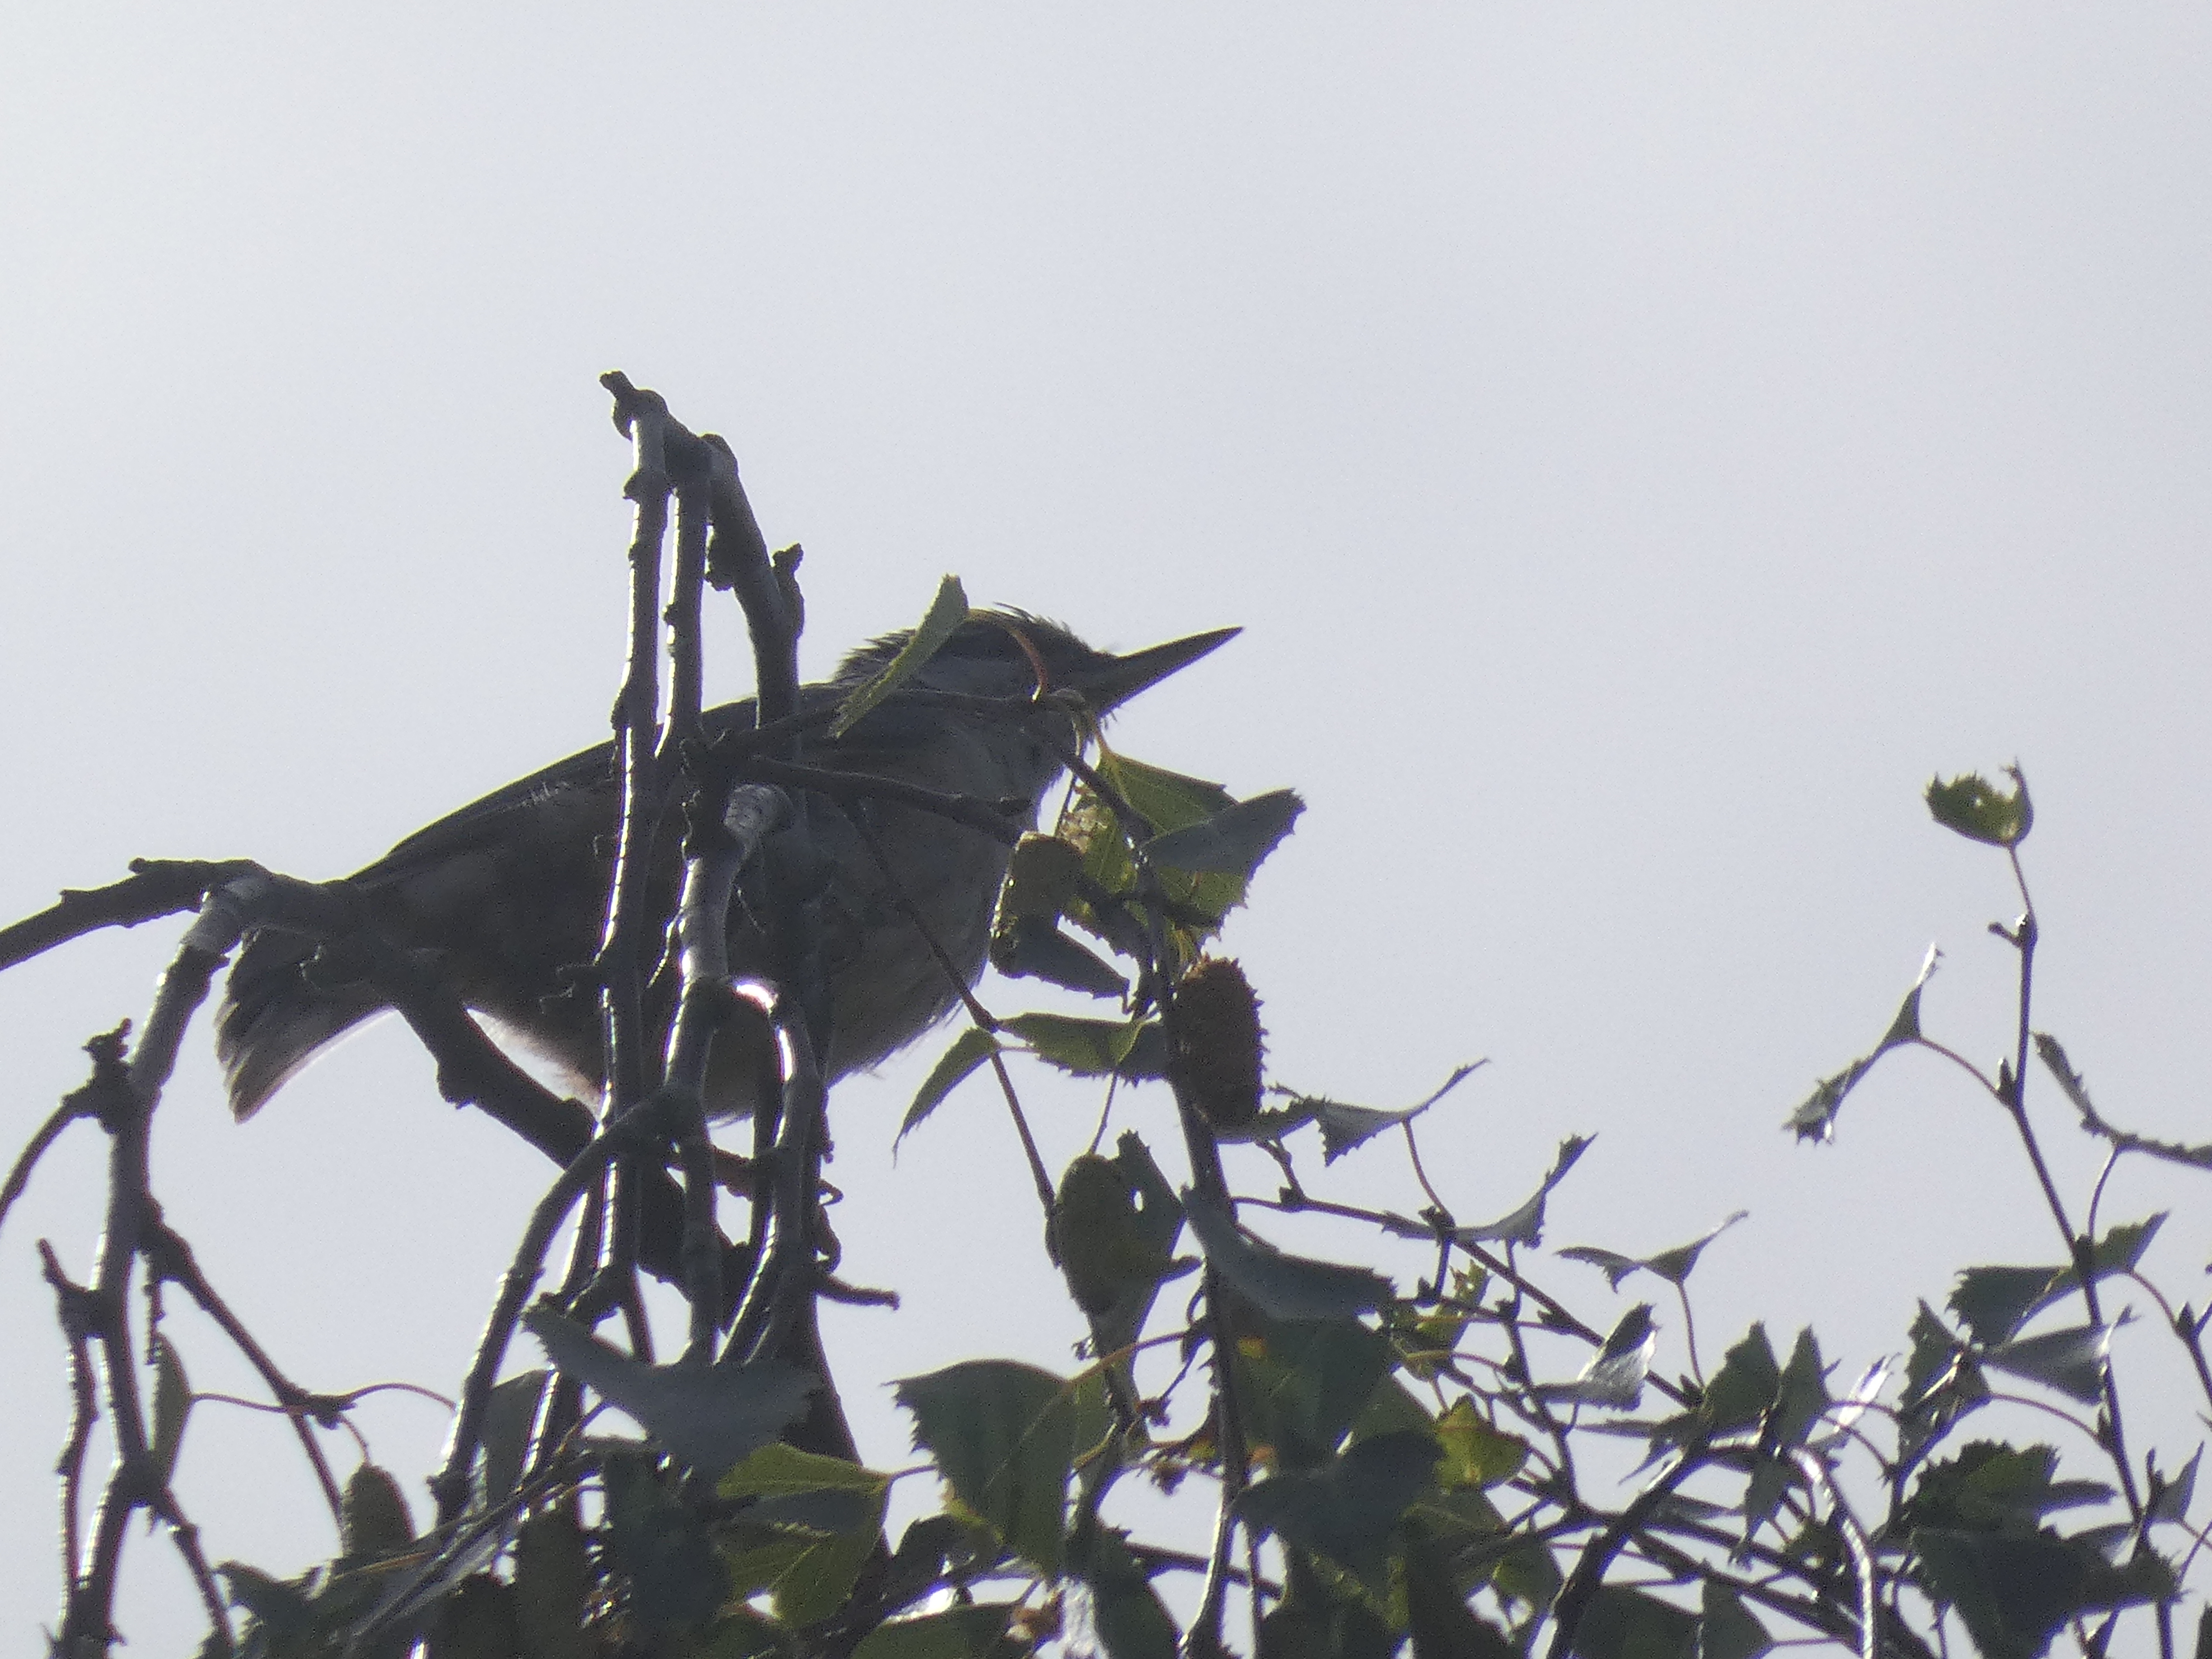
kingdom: Animalia
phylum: Chordata
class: Aves
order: Passeriformes
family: Sittidae
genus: Sitta
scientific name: Sitta europaea
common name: Spætmejse
